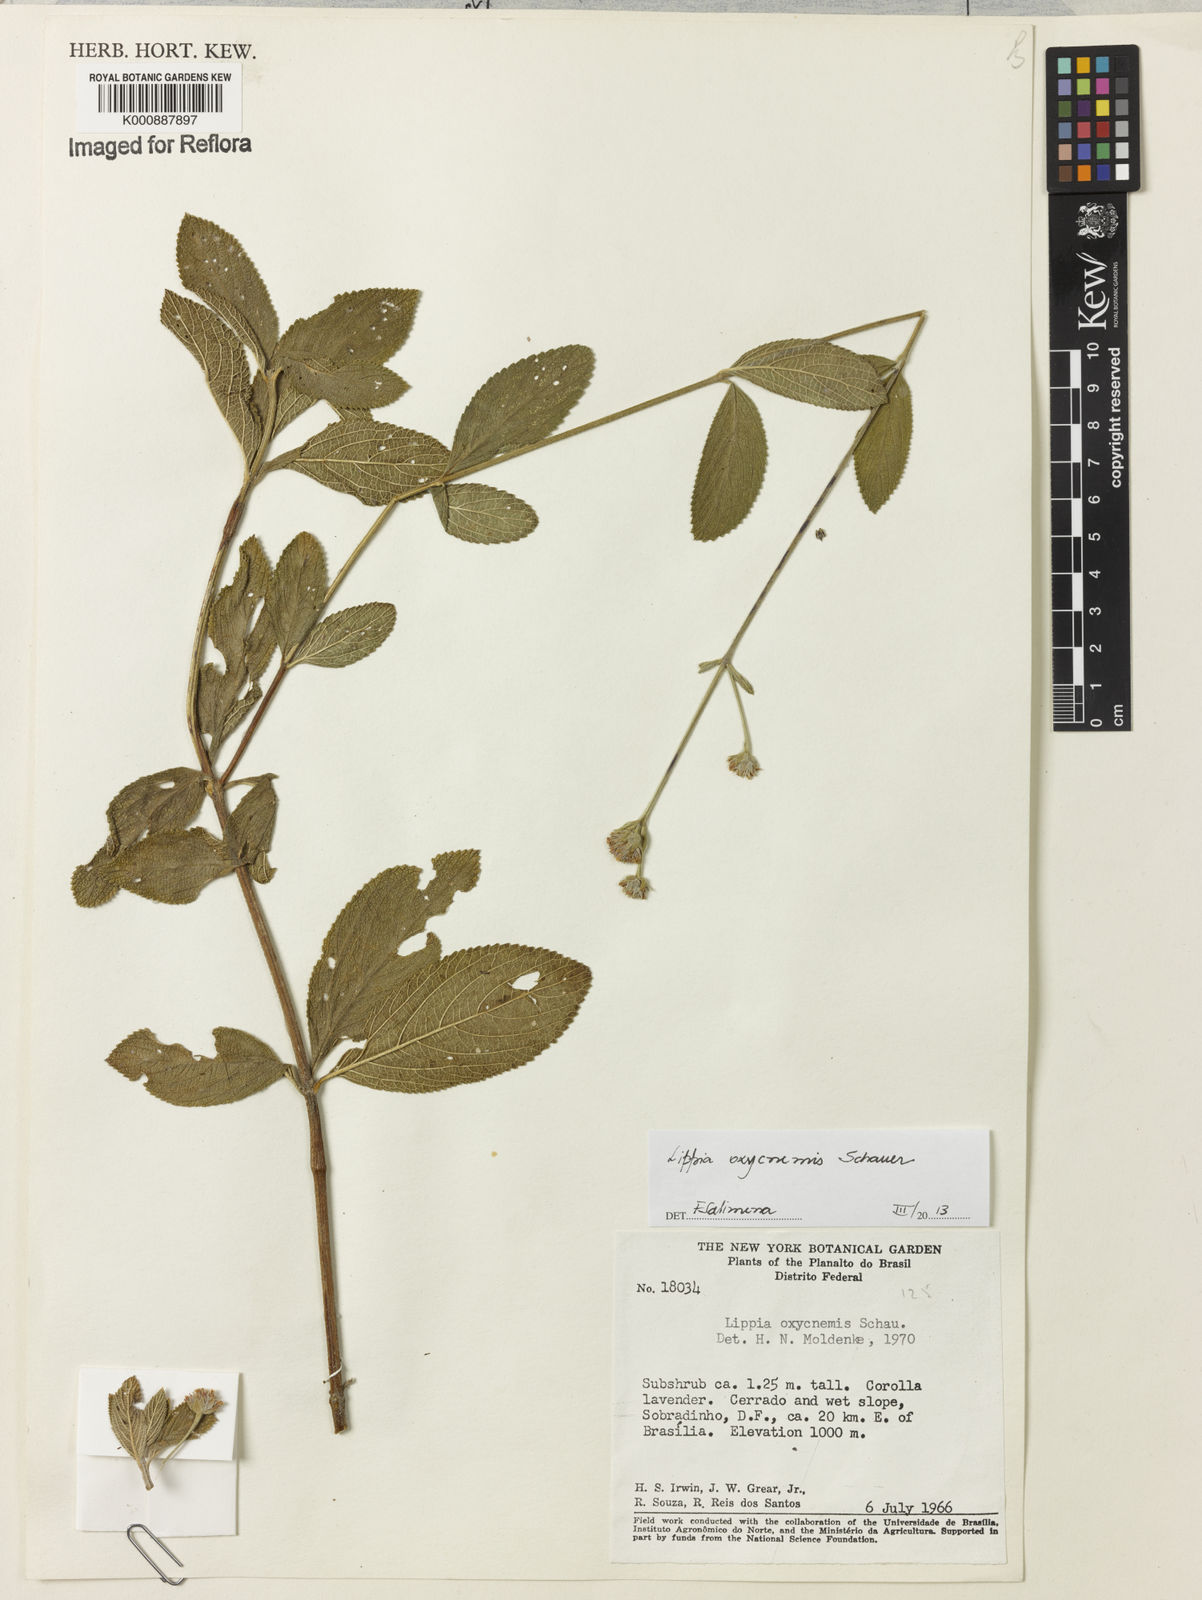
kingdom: Plantae
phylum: Tracheophyta
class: Magnoliopsida
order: Lamiales
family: Verbenaceae
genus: Lippia
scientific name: Lippia oxycnemis
